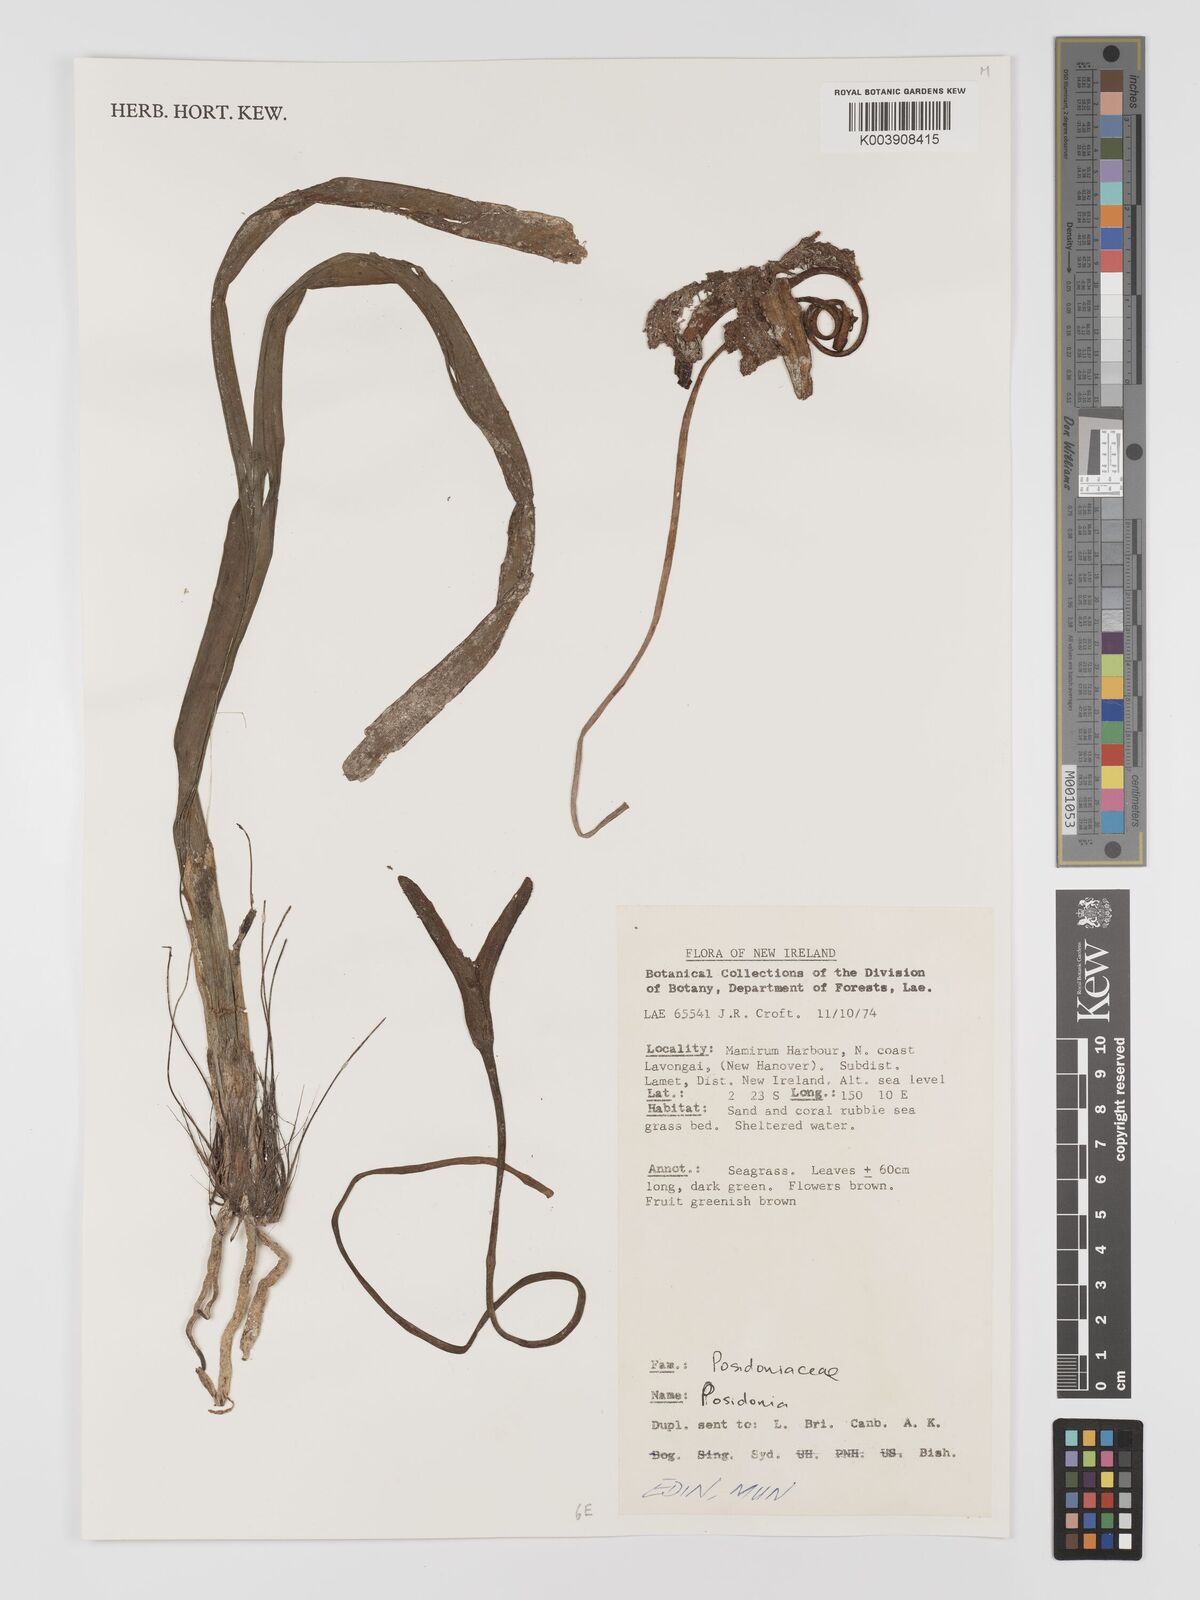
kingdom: Plantae
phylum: Tracheophyta
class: Liliopsida
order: Alismatales
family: Posidoniaceae
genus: Posidonia
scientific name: Posidonia
